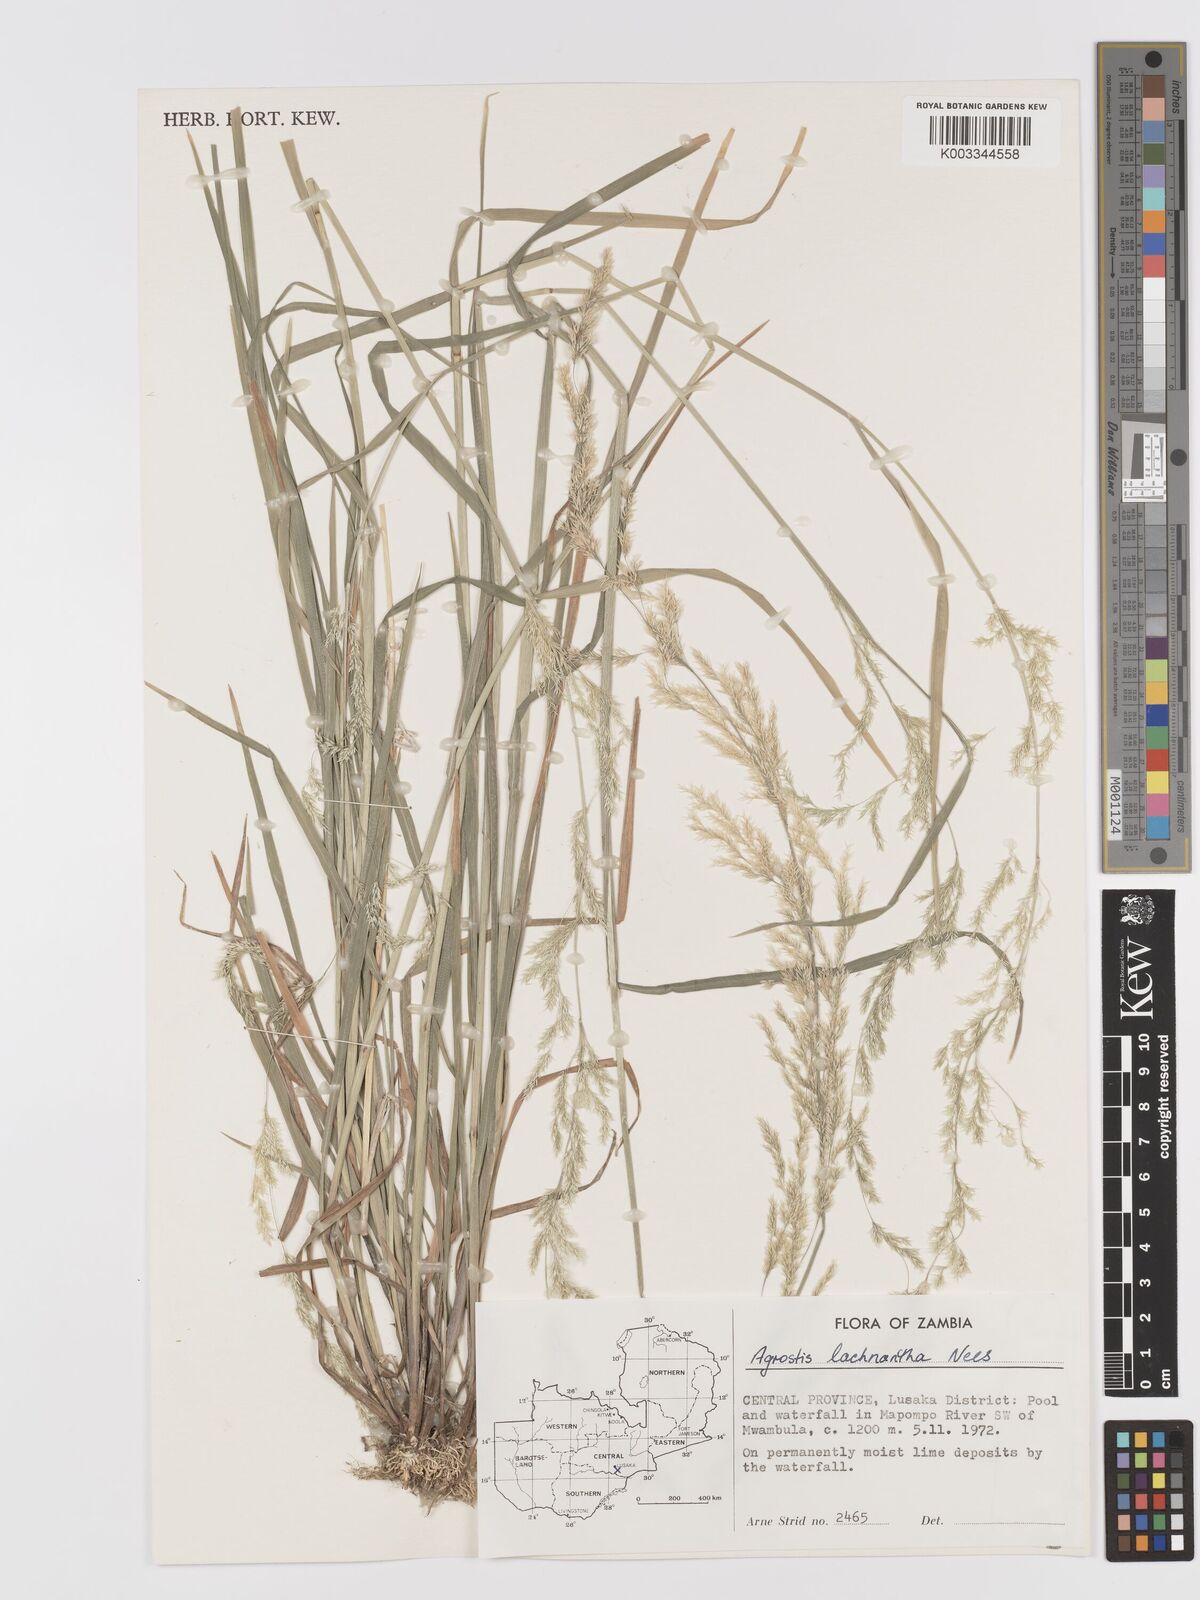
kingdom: Plantae
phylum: Tracheophyta
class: Liliopsida
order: Poales
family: Poaceae
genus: Lachnagrostis
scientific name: Lachnagrostis lachnantha
